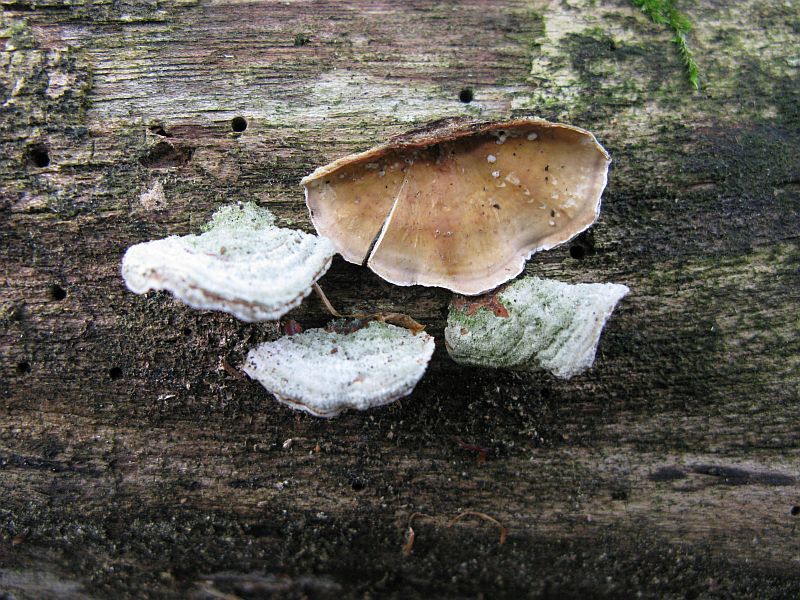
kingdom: Fungi
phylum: Basidiomycota
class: Agaricomycetes
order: Russulales
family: Stereaceae
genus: Stereum
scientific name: Stereum hirsutum
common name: håret lædersvamp
